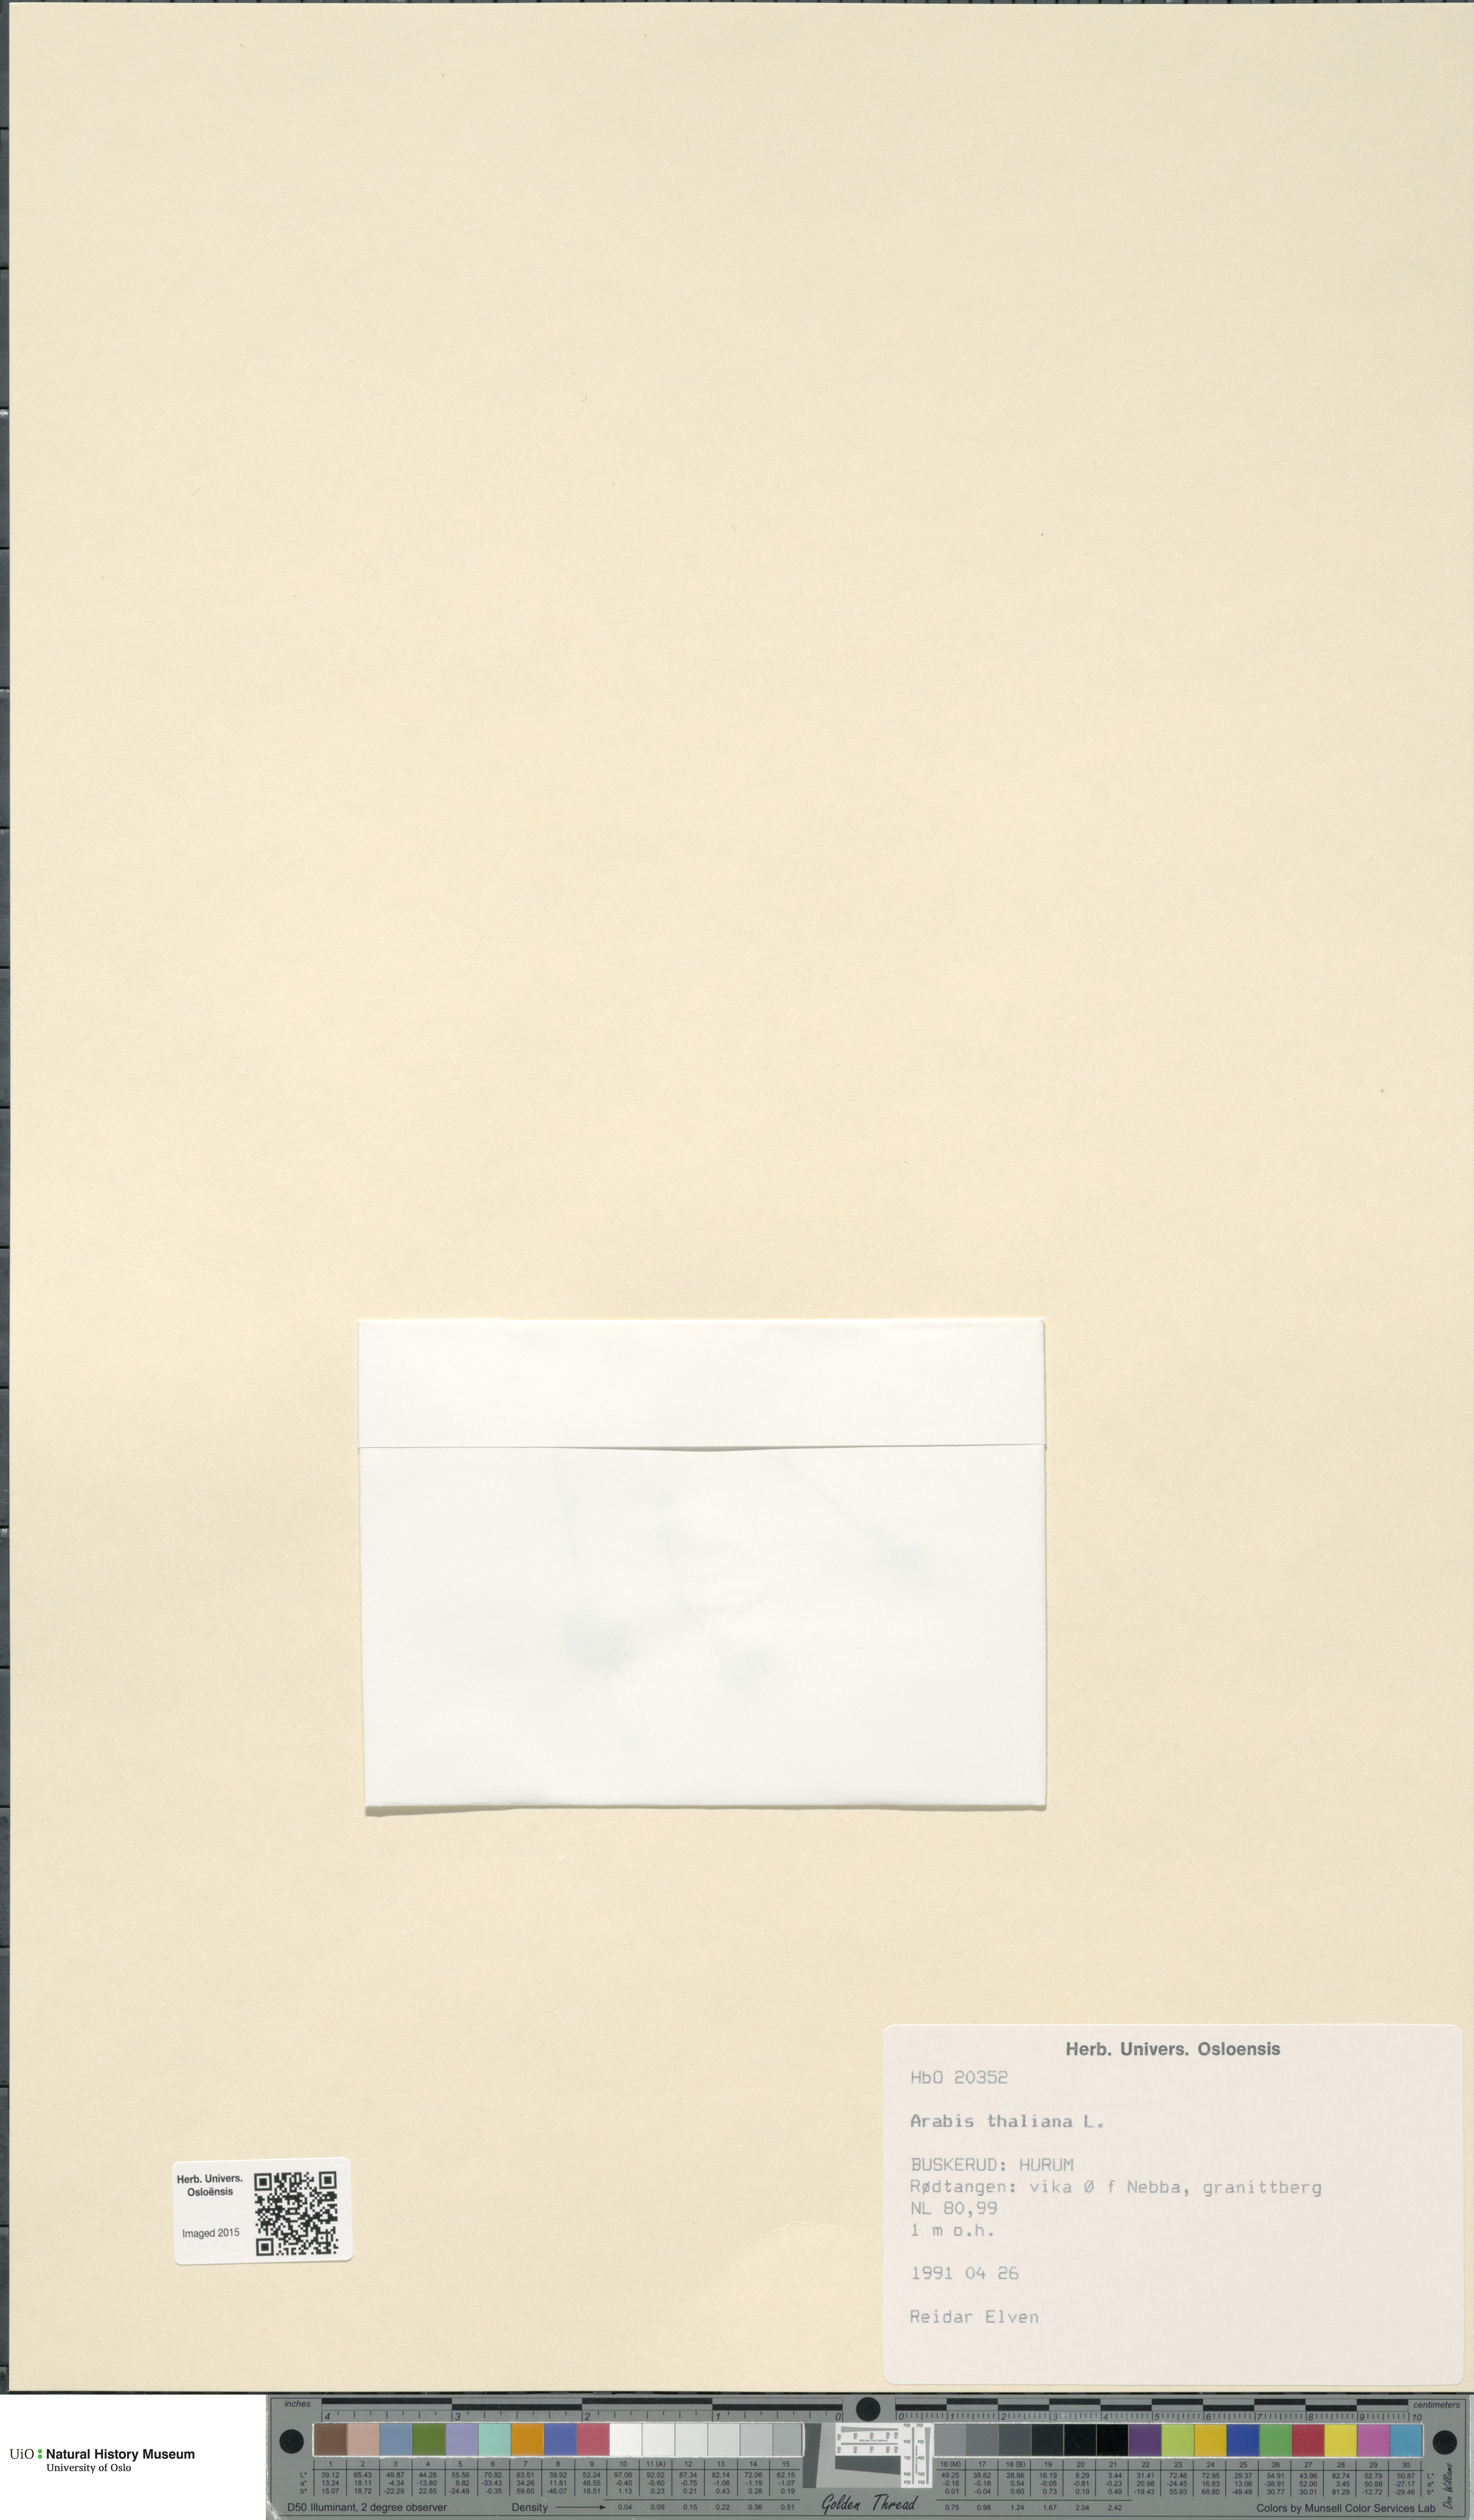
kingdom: Plantae
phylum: Tracheophyta
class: Magnoliopsida
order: Brassicales
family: Brassicaceae
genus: Arabidopsis
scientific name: Arabidopsis thaliana
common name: Thale cress
